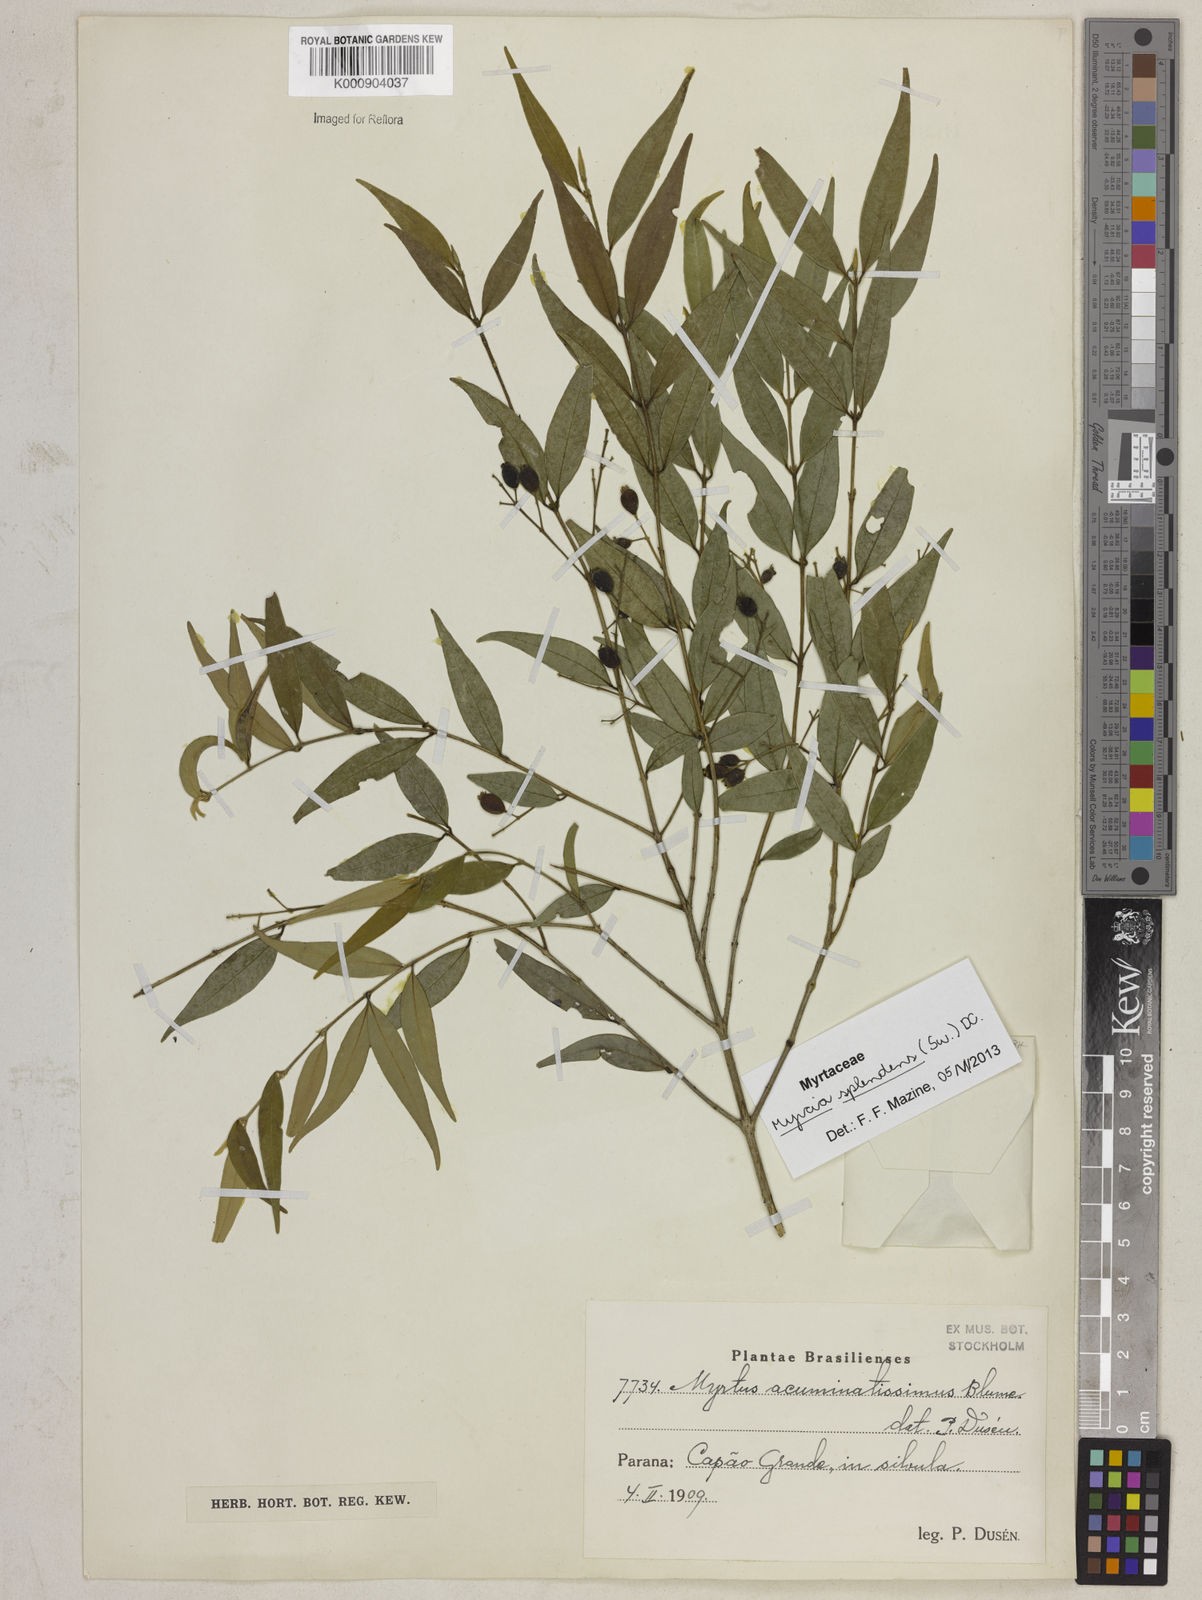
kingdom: Plantae
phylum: Tracheophyta
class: Magnoliopsida
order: Myrtales
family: Myrtaceae
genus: Myrcia
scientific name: Myrcia splendens
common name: Surinam cherry
